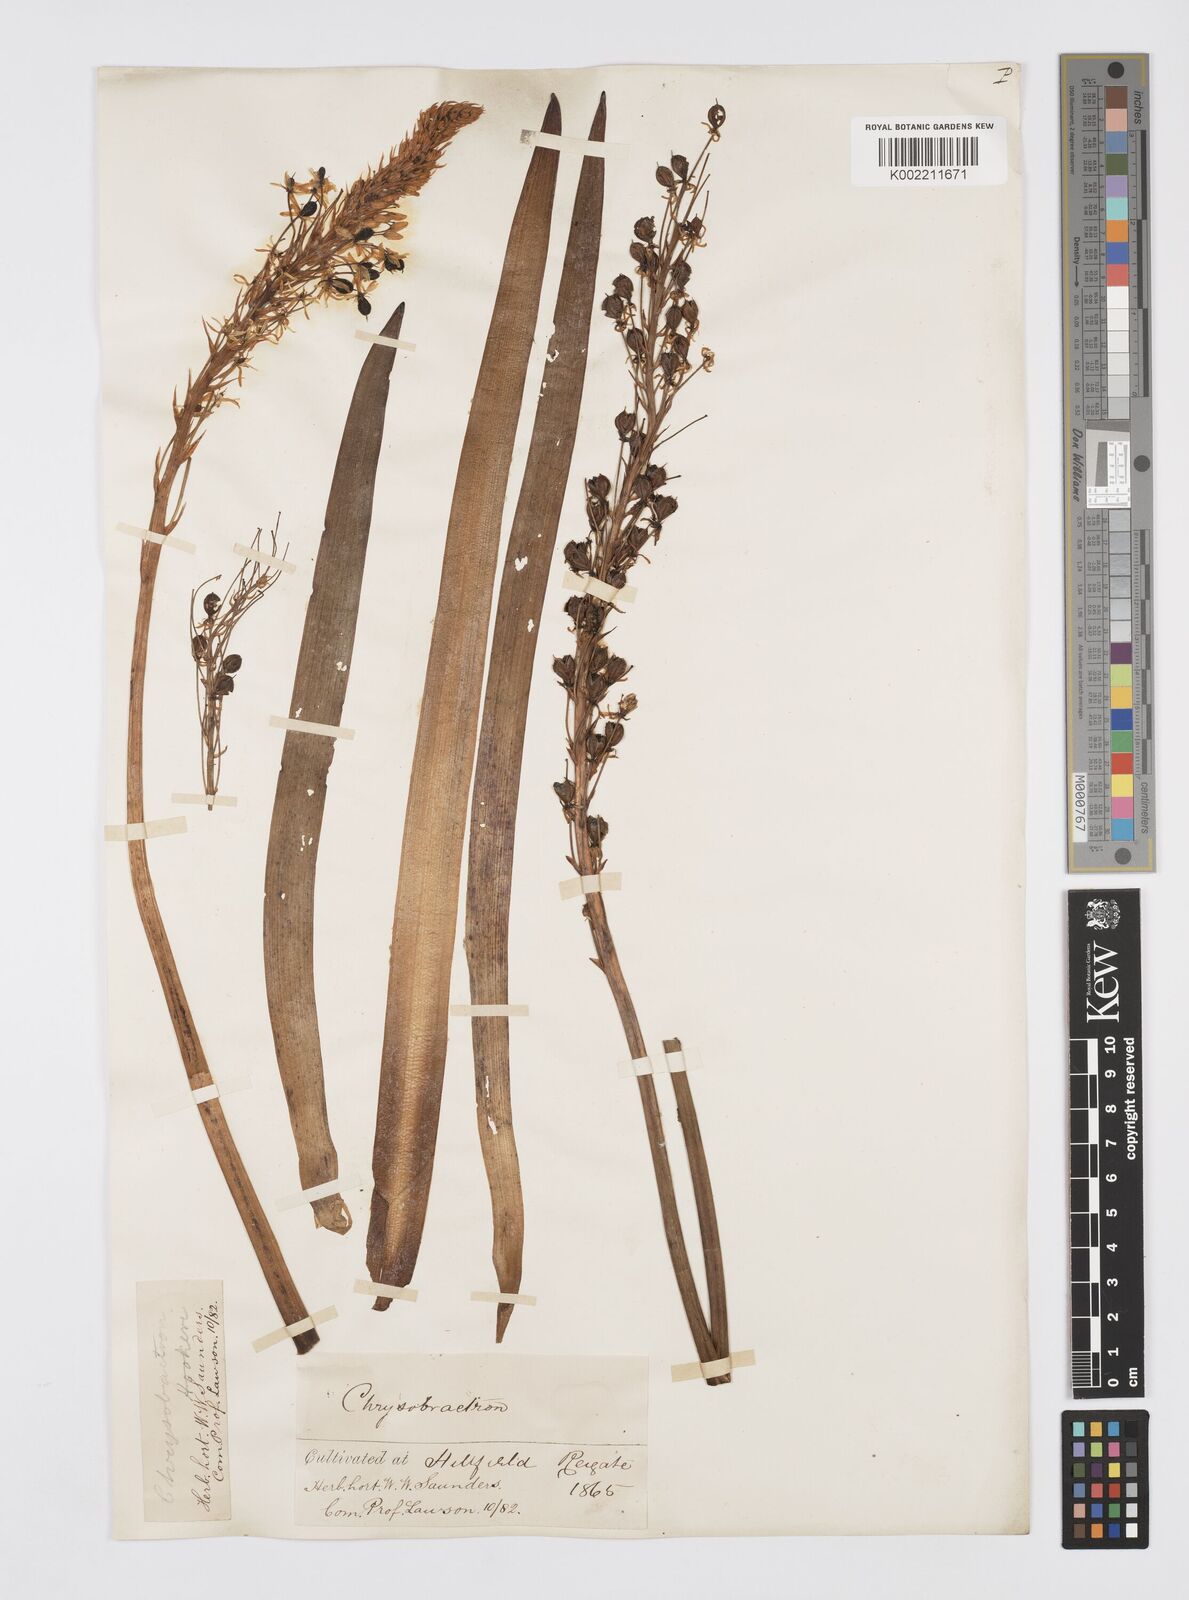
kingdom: Plantae
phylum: Tracheophyta
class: Liliopsida
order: Asparagales
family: Asphodelaceae
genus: Bulbinella
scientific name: Bulbinella hookeri
